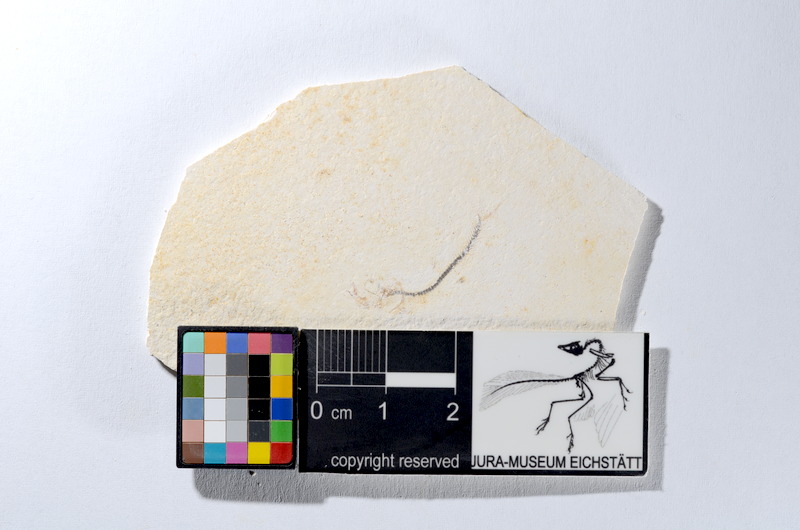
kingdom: Animalia
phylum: Chordata
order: Salmoniformes
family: Orthogonikleithridae
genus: Orthogonikleithrus
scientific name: Orthogonikleithrus hoelli
